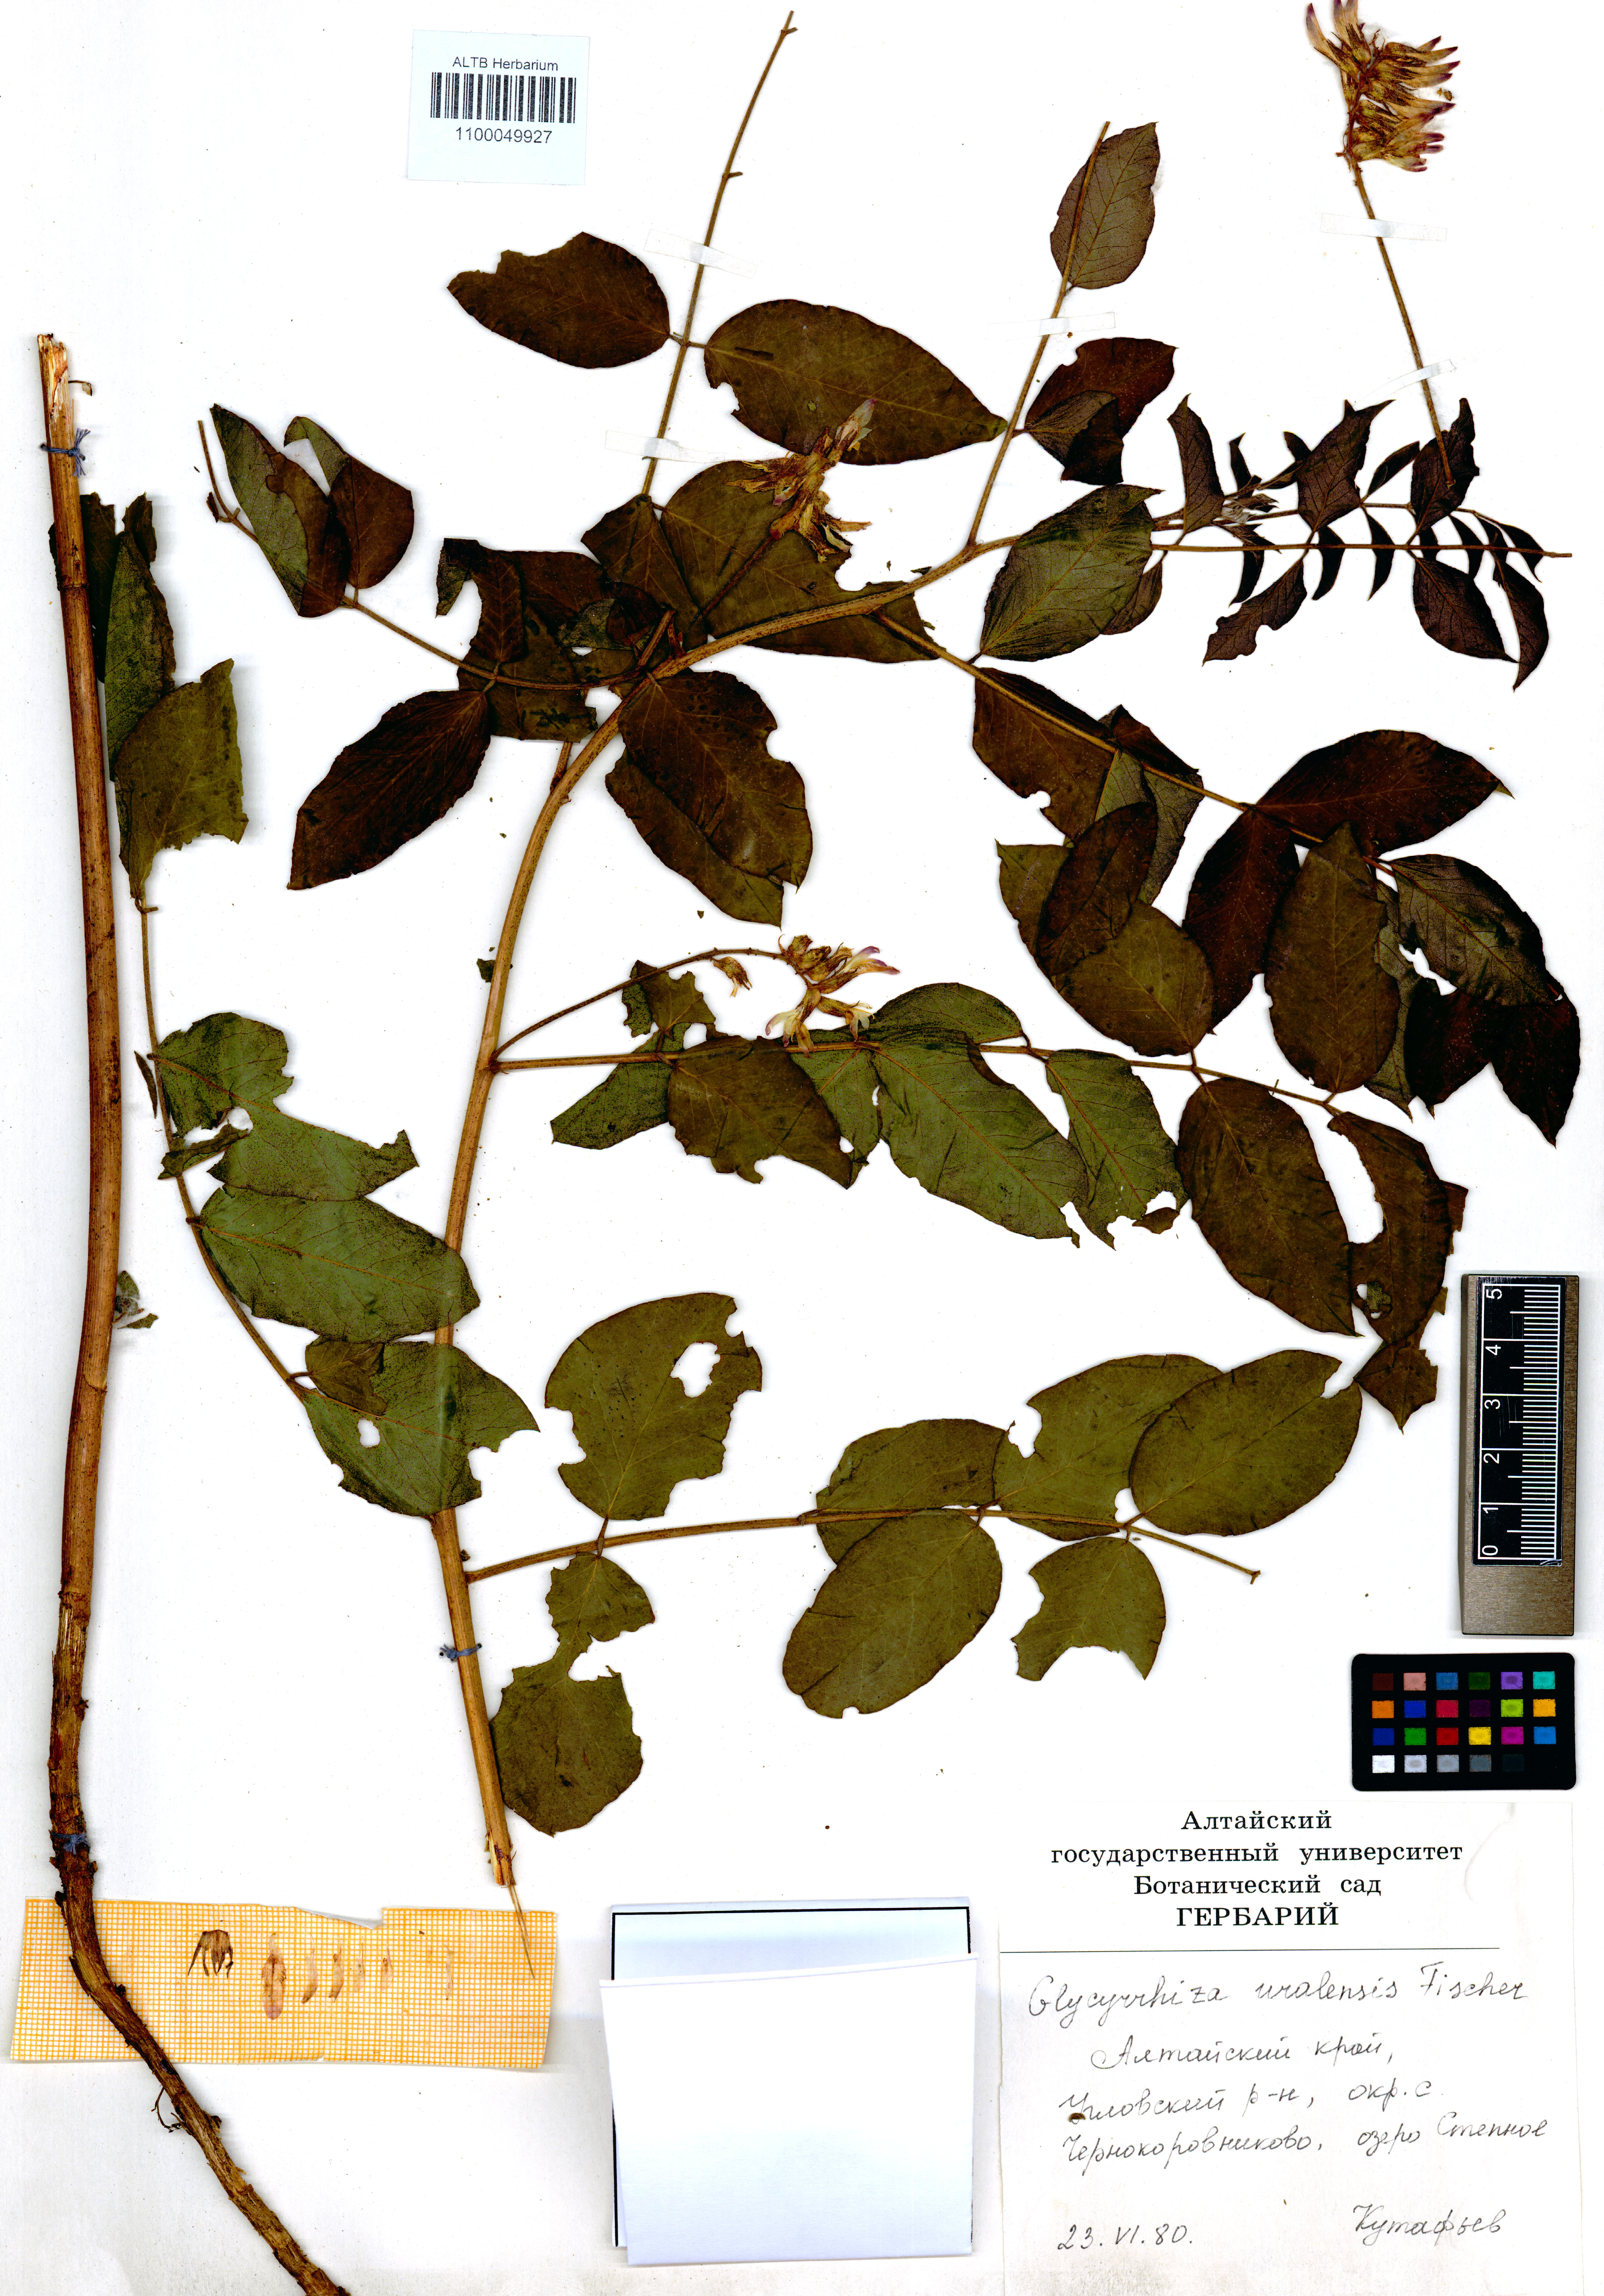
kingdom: Plantae
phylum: Tracheophyta
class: Magnoliopsida
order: Fabales
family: Fabaceae
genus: Glycyrrhiza
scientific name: Glycyrrhiza uralensis
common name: Chinese licorice
